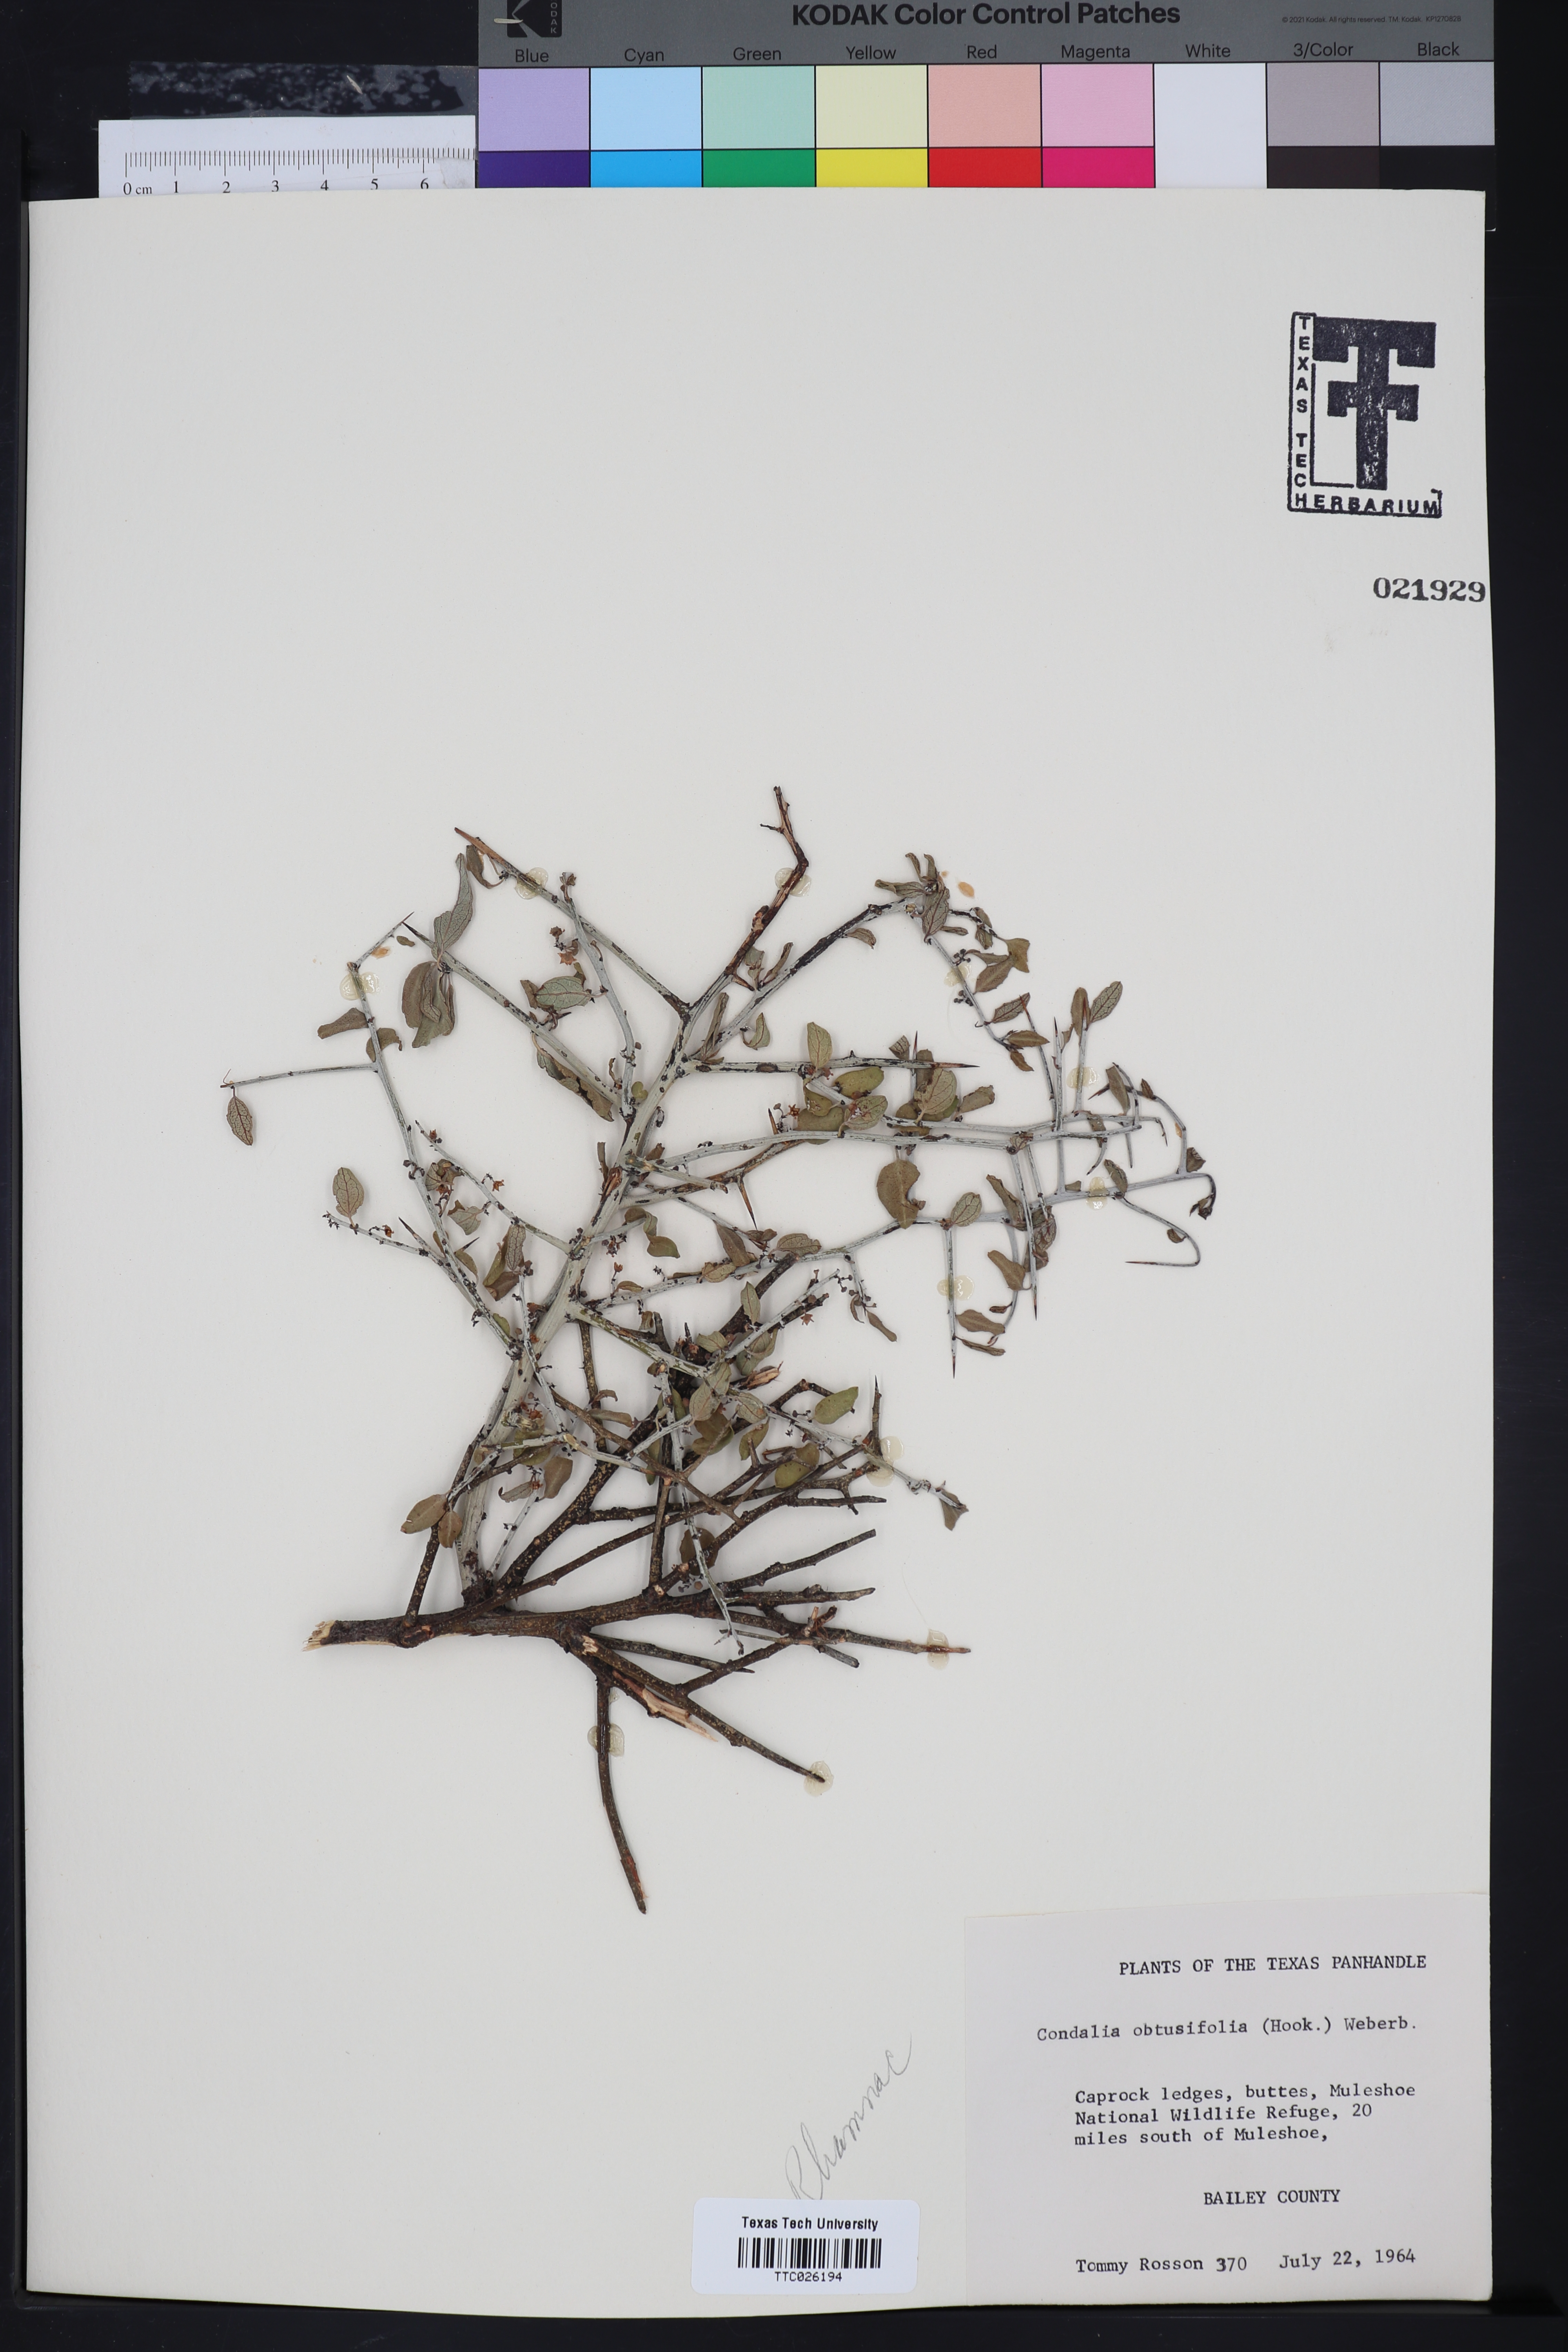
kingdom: Plantae
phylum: Tracheophyta
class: Magnoliopsida
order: Rosales
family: Rhamnaceae
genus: Sarcomphalus
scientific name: Sarcomphalus obtusifolius
